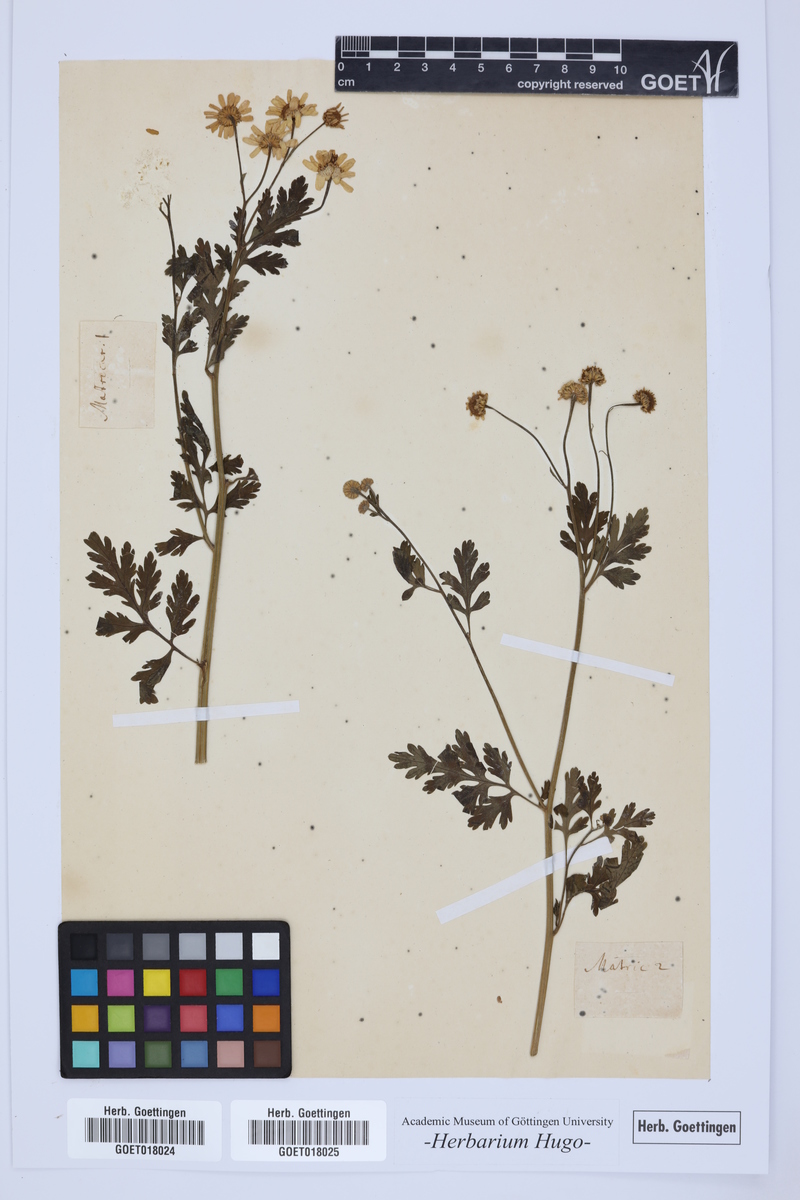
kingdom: Plantae
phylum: Tracheophyta
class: Magnoliopsida
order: Asterales
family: Asteraceae
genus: Matricaria
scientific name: Matricaria
